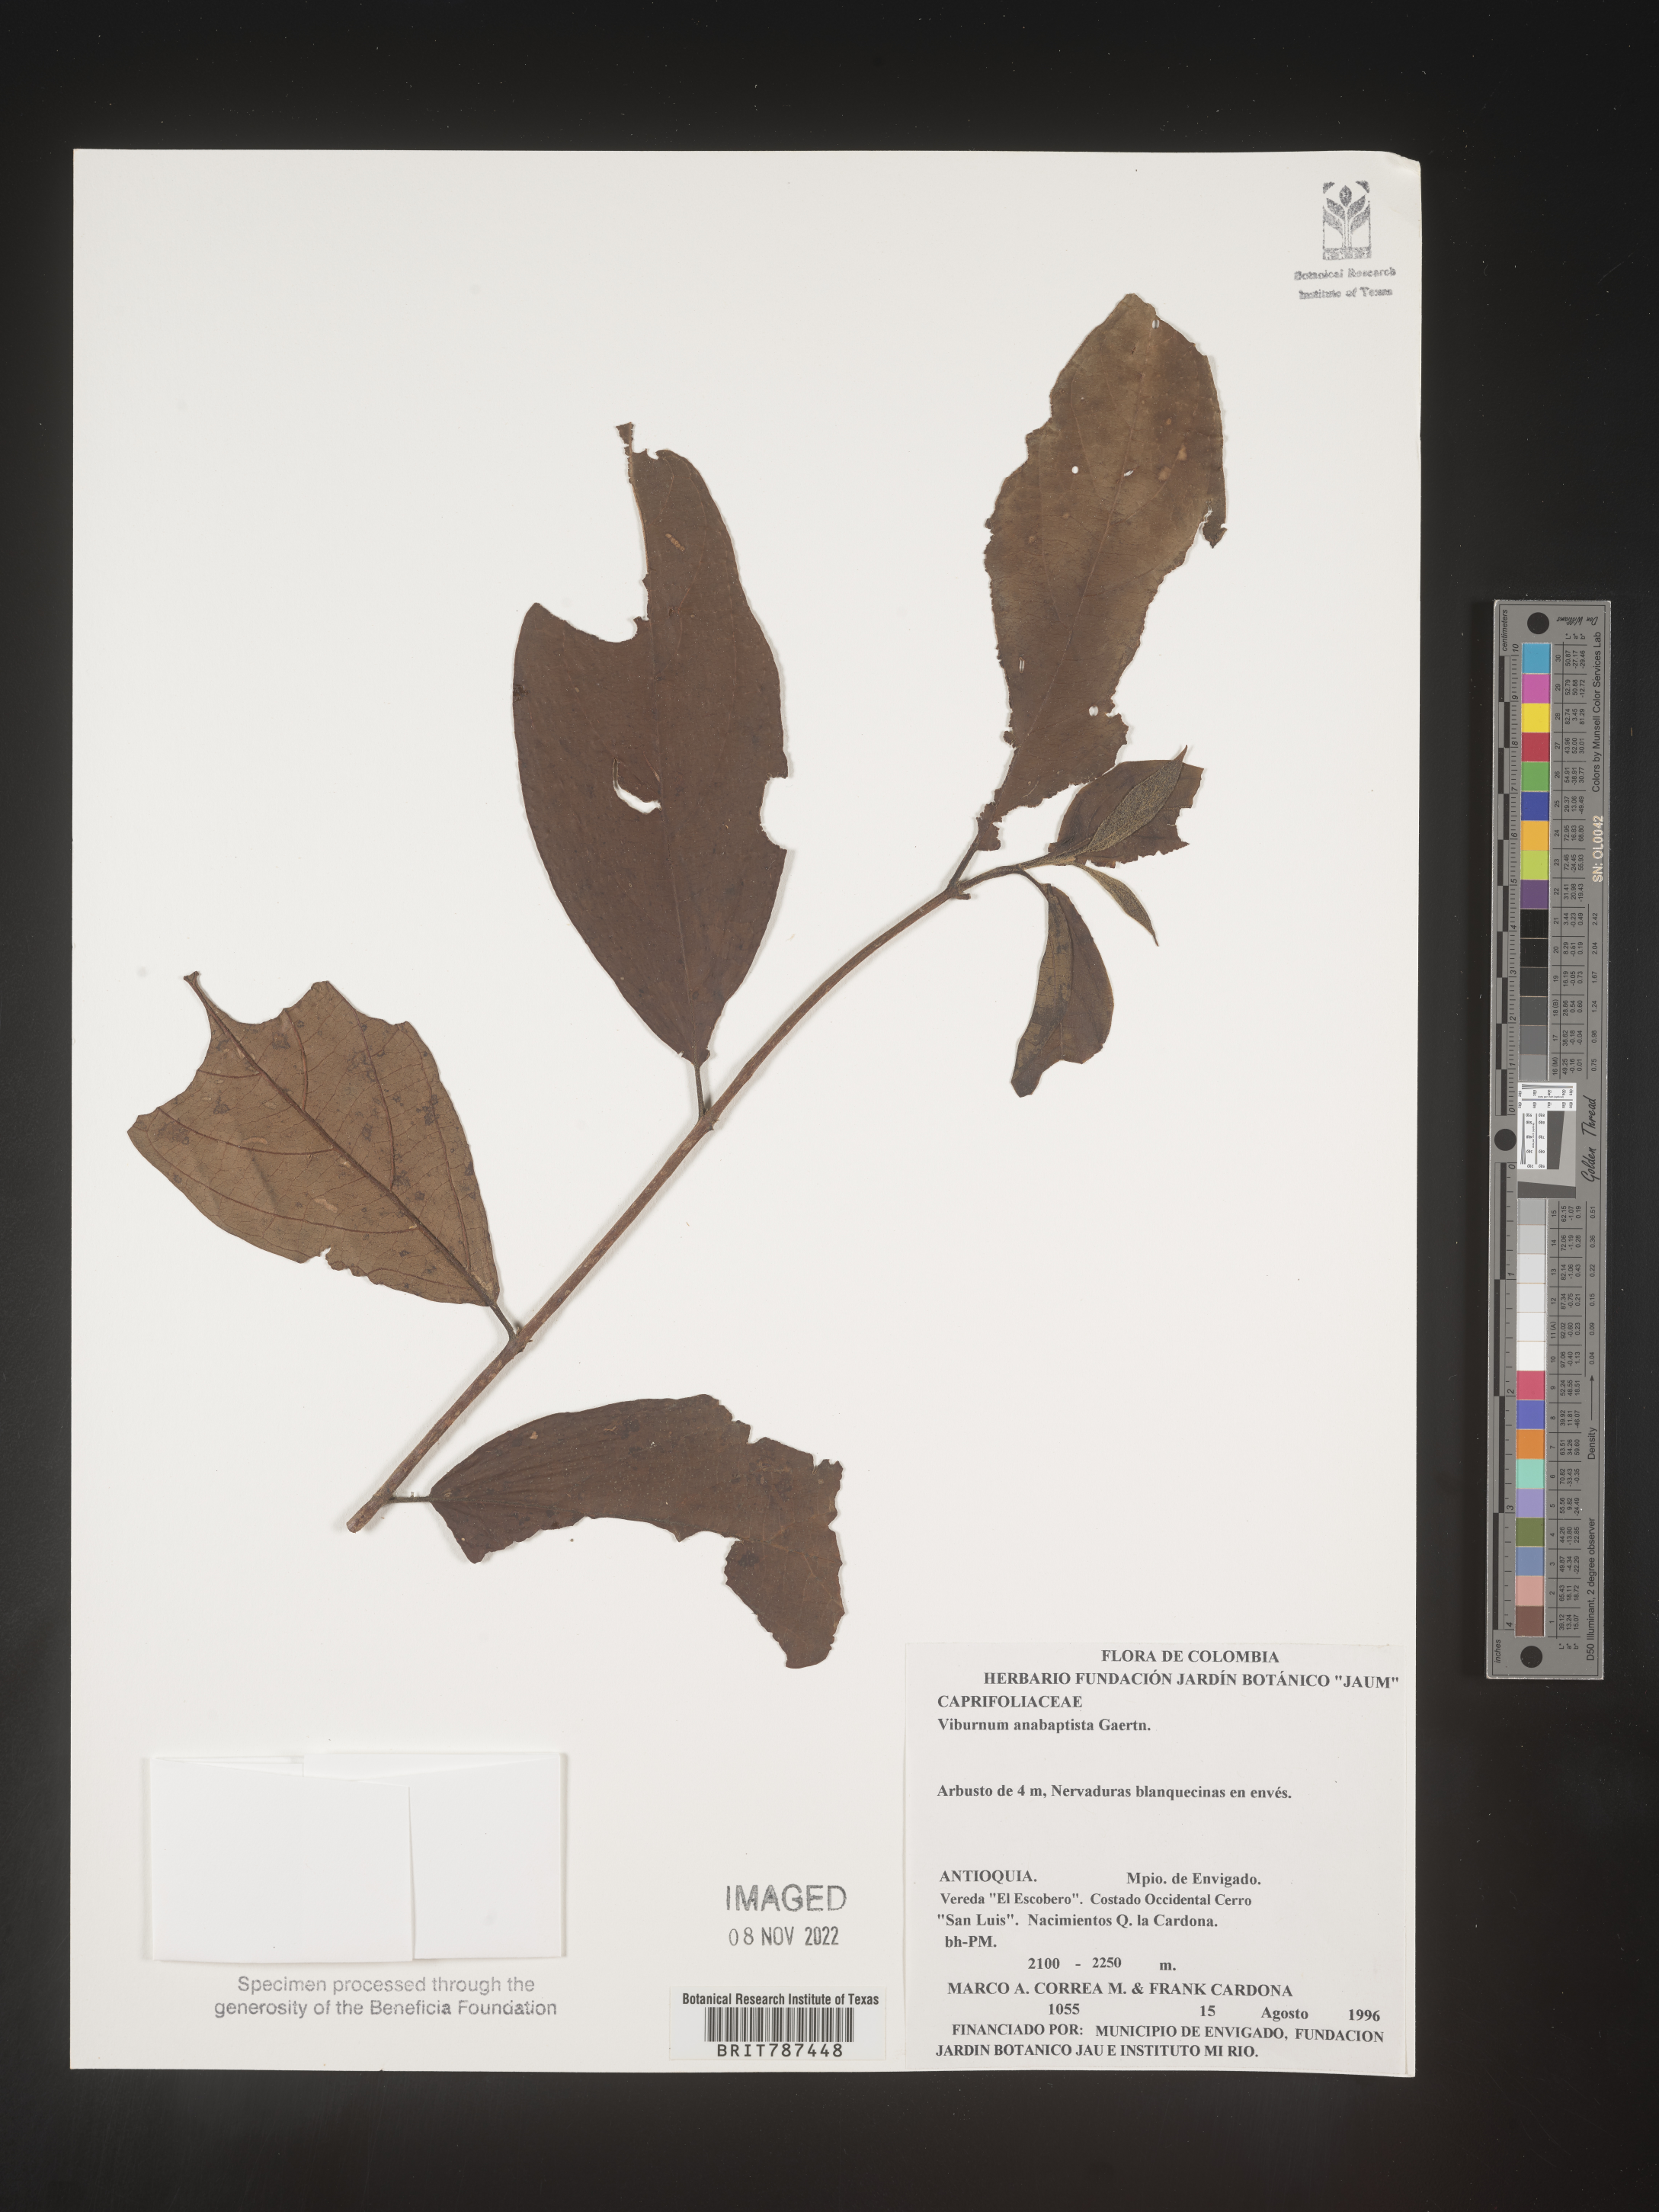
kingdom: Plantae
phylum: Tracheophyta
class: Magnoliopsida
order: Dipsacales
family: Viburnaceae
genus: Viburnum
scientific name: Viburnum
